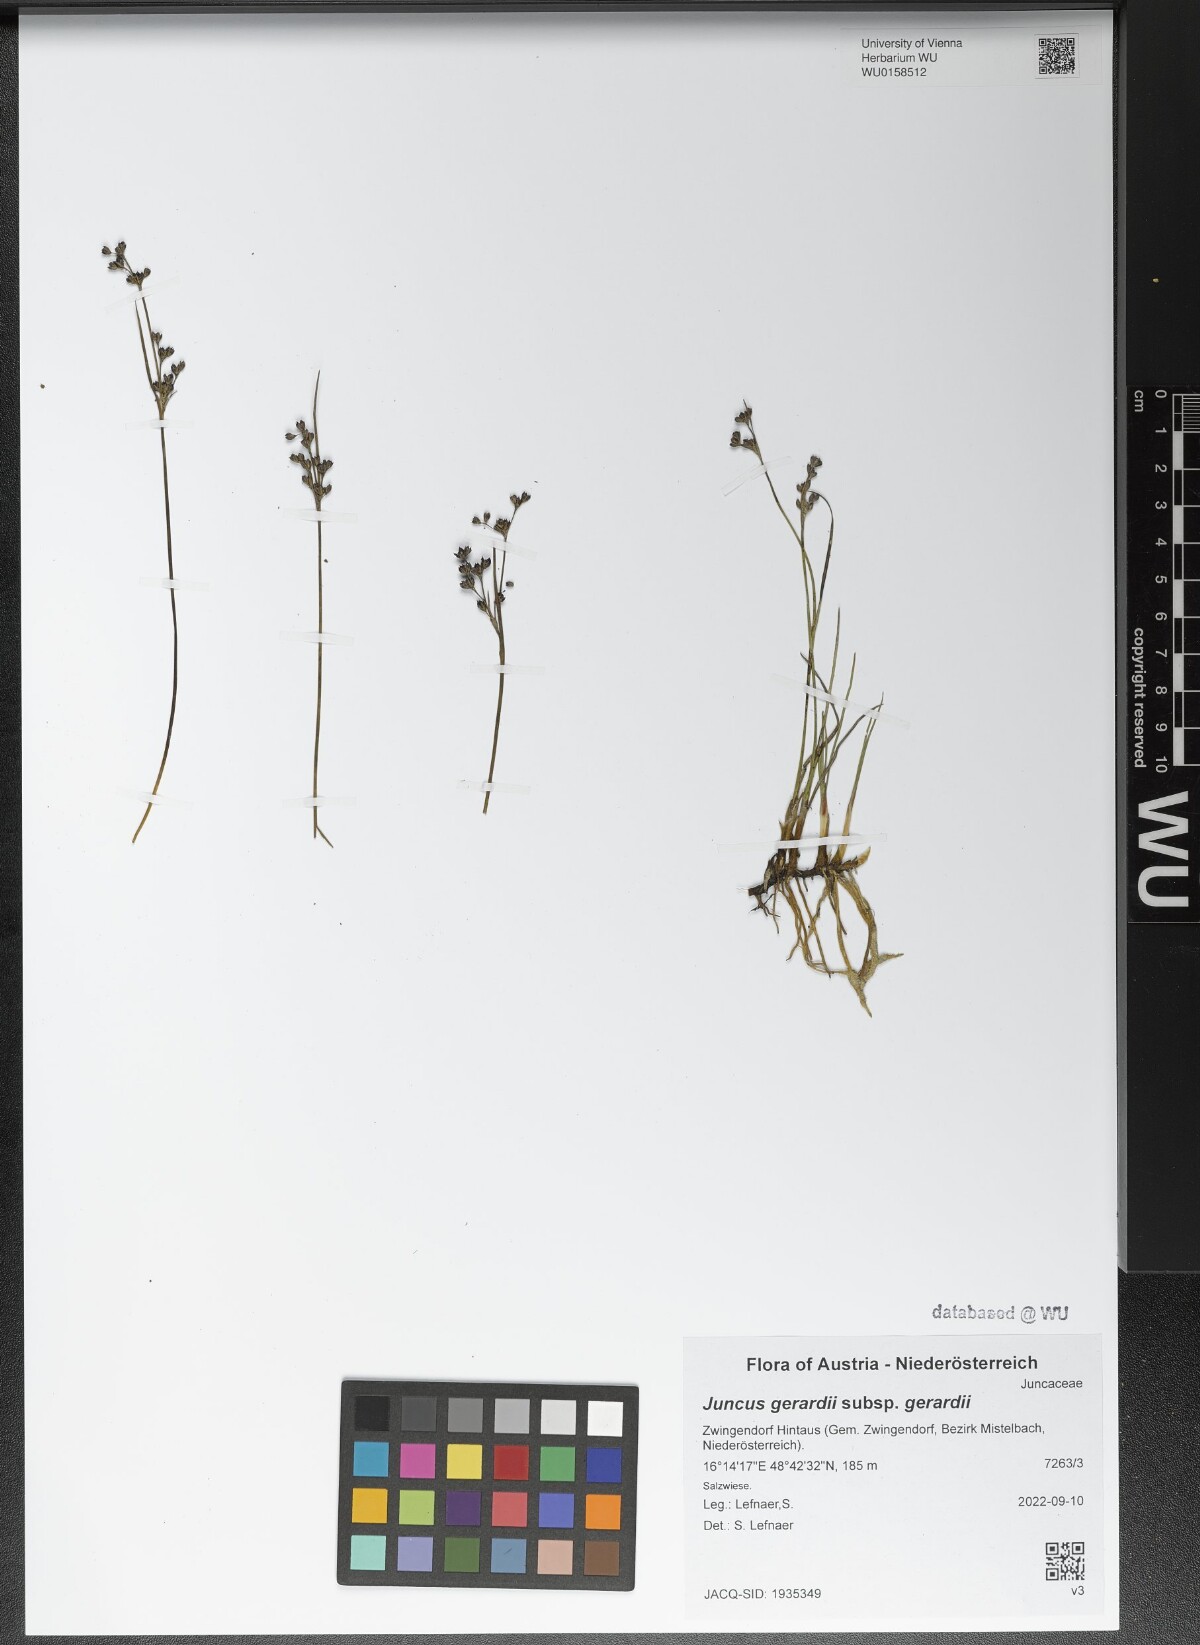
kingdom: Plantae
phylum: Tracheophyta
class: Liliopsida
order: Poales
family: Juncaceae
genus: Juncus
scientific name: Juncus gerardi
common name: Saltmarsh rush
